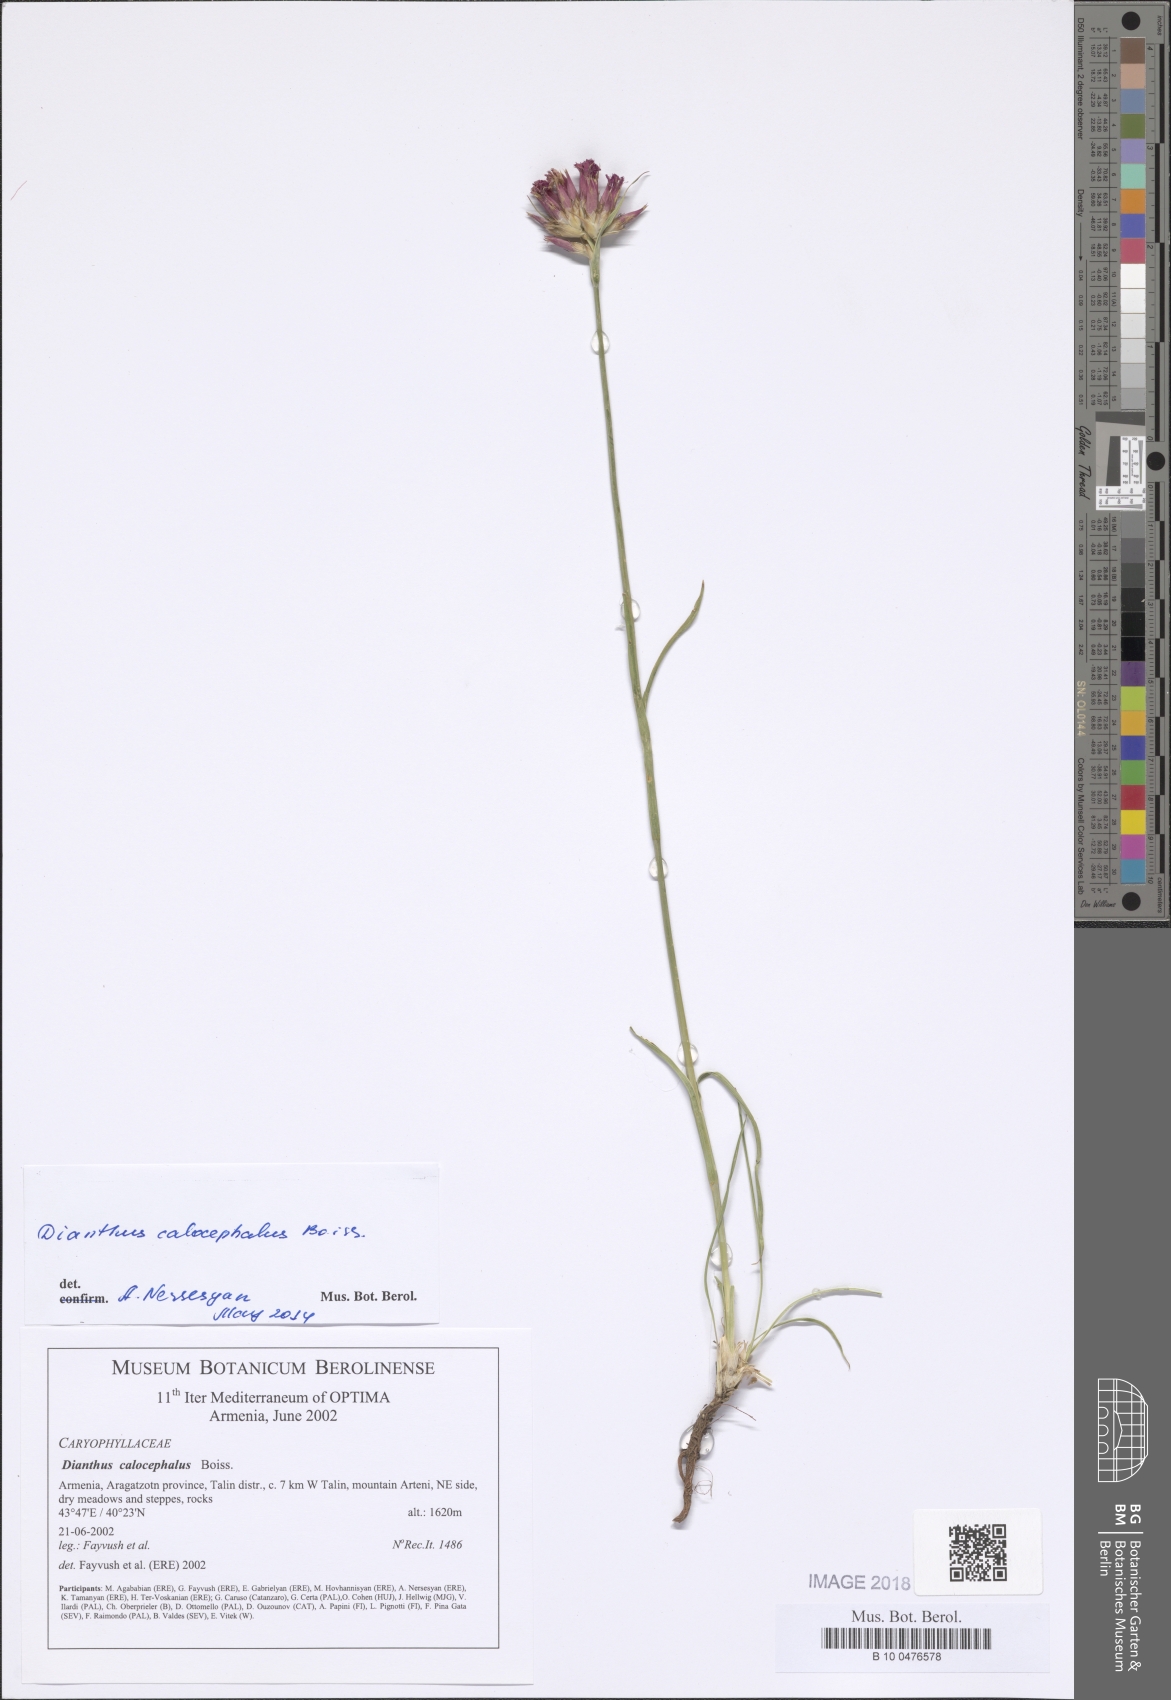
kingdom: Plantae
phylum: Tracheophyta
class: Magnoliopsida
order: Caryophyllales
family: Caryophyllaceae
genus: Dianthus
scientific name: Dianthus cruentus
